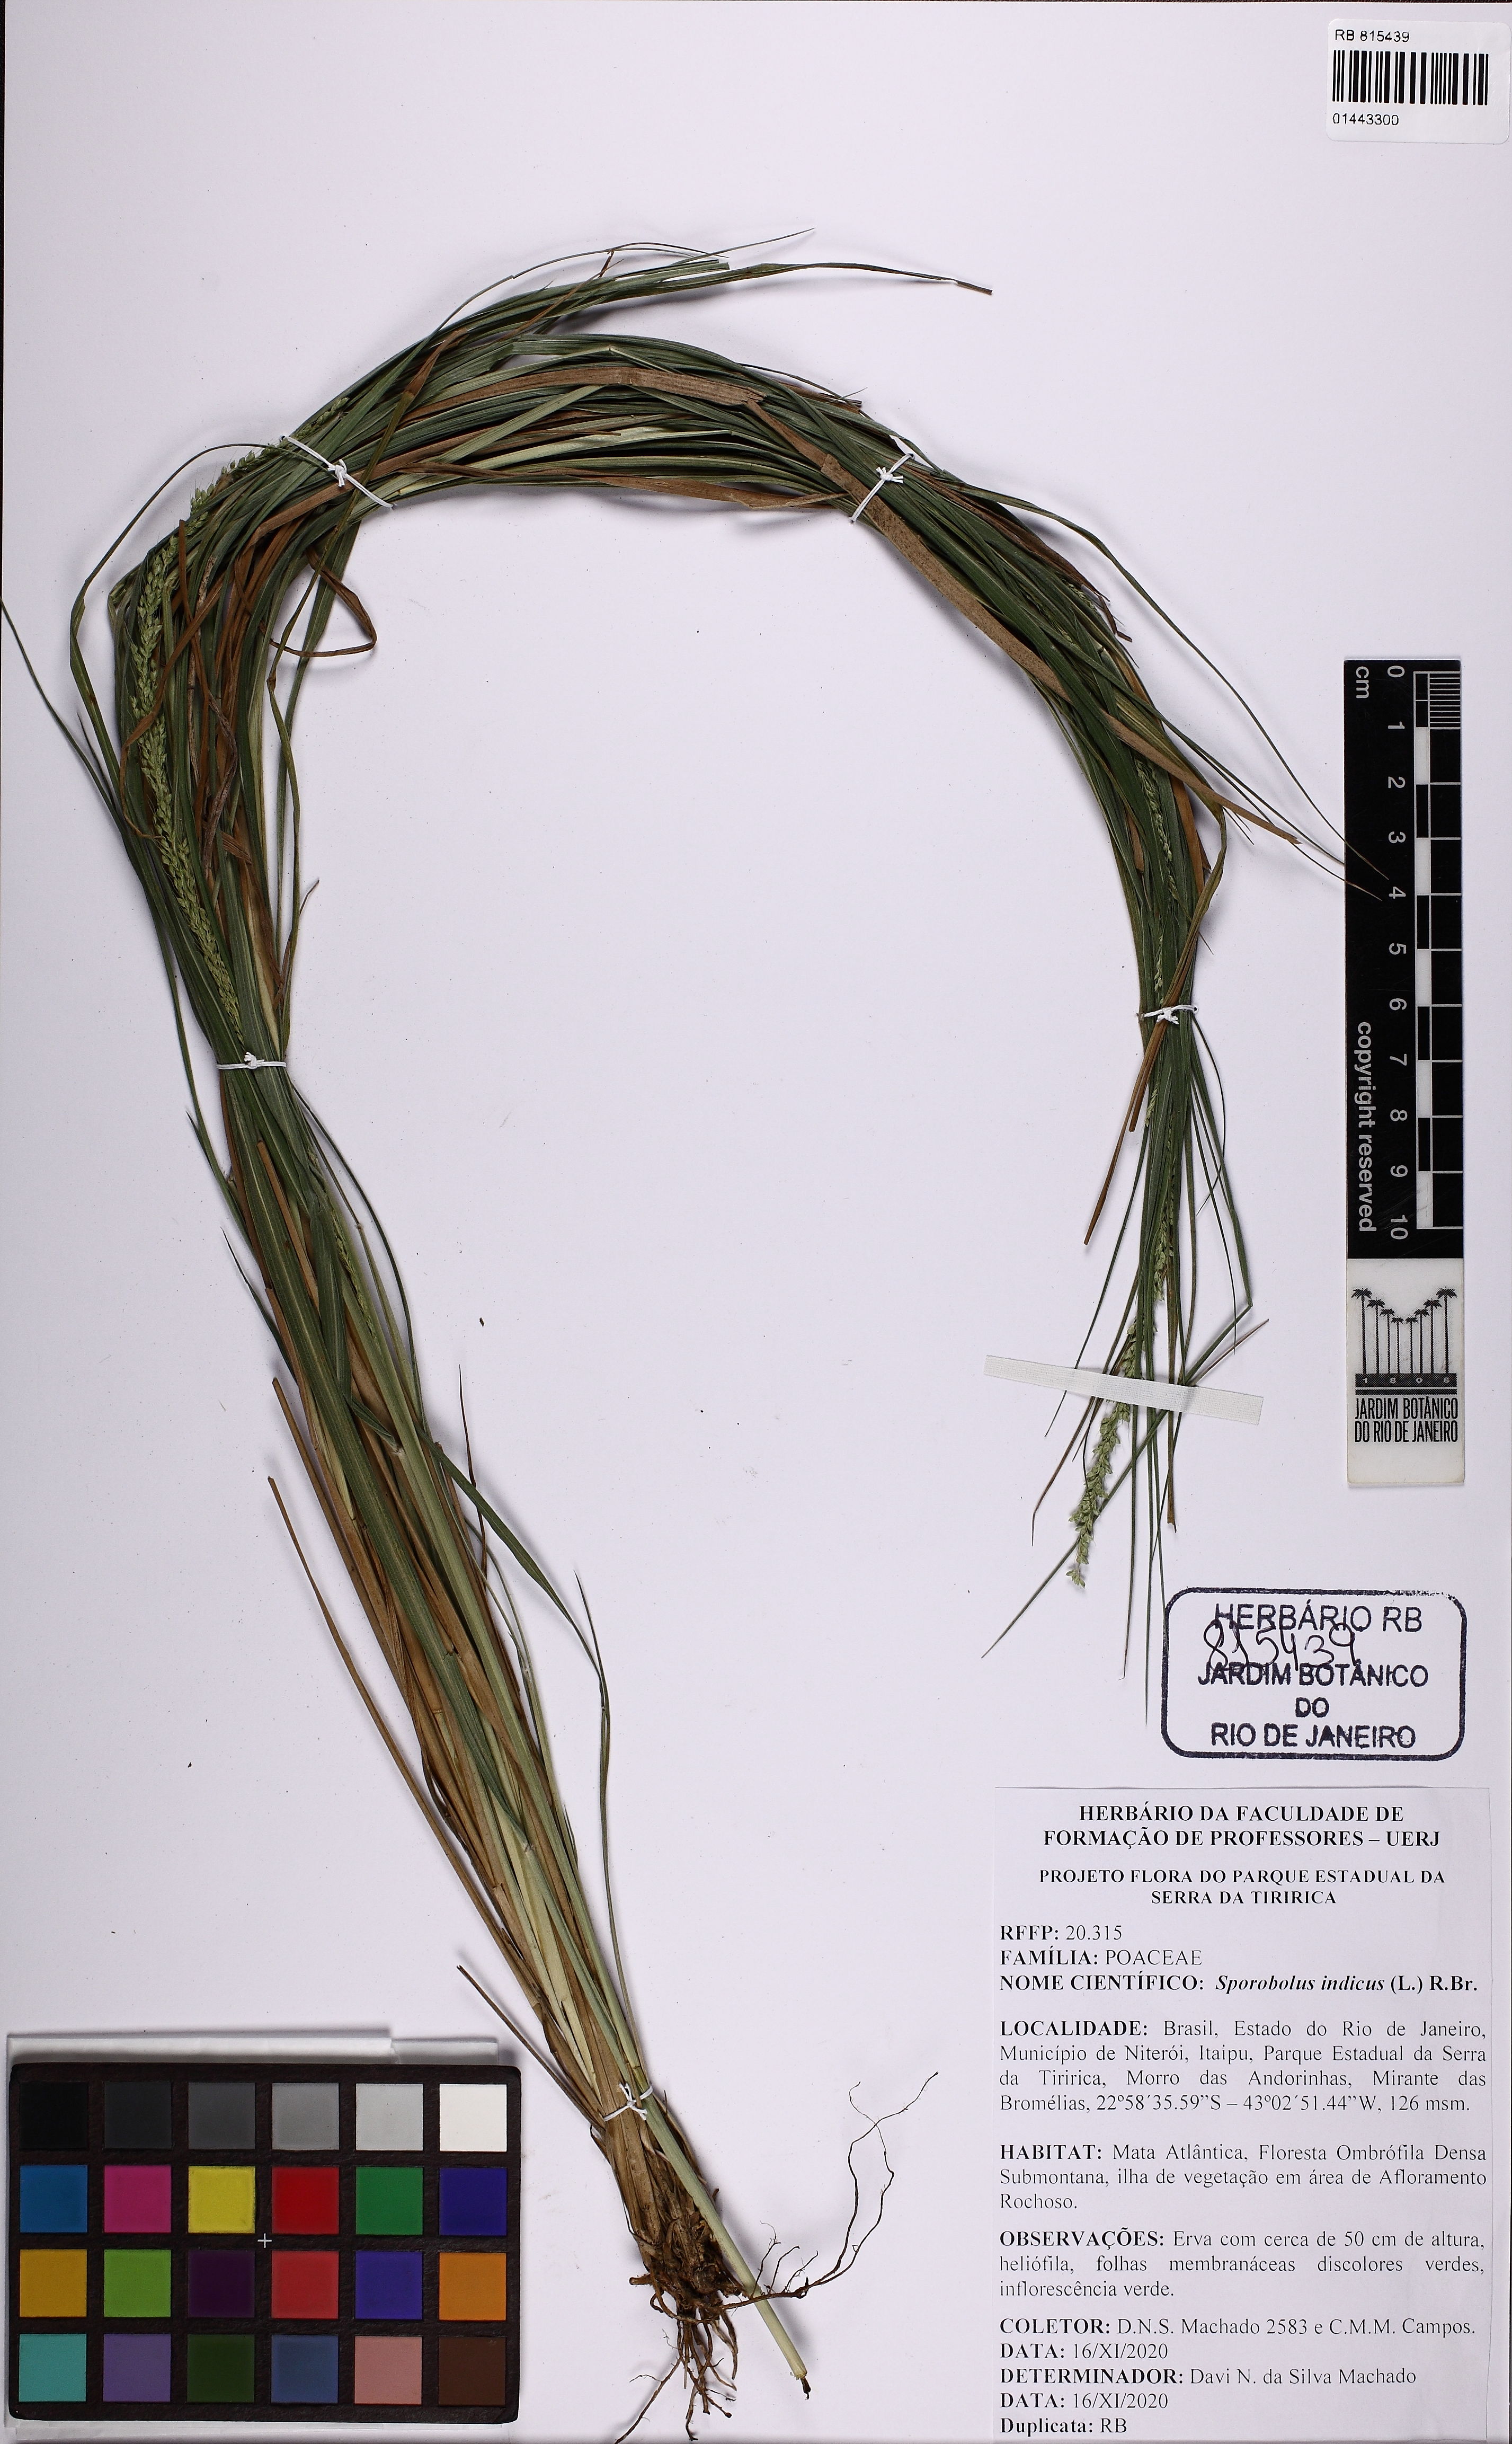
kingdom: Plantae
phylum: Tracheophyta
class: Liliopsida
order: Poales
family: Poaceae
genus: Sporobolus
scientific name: Sporobolus indicus
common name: Smut grass
